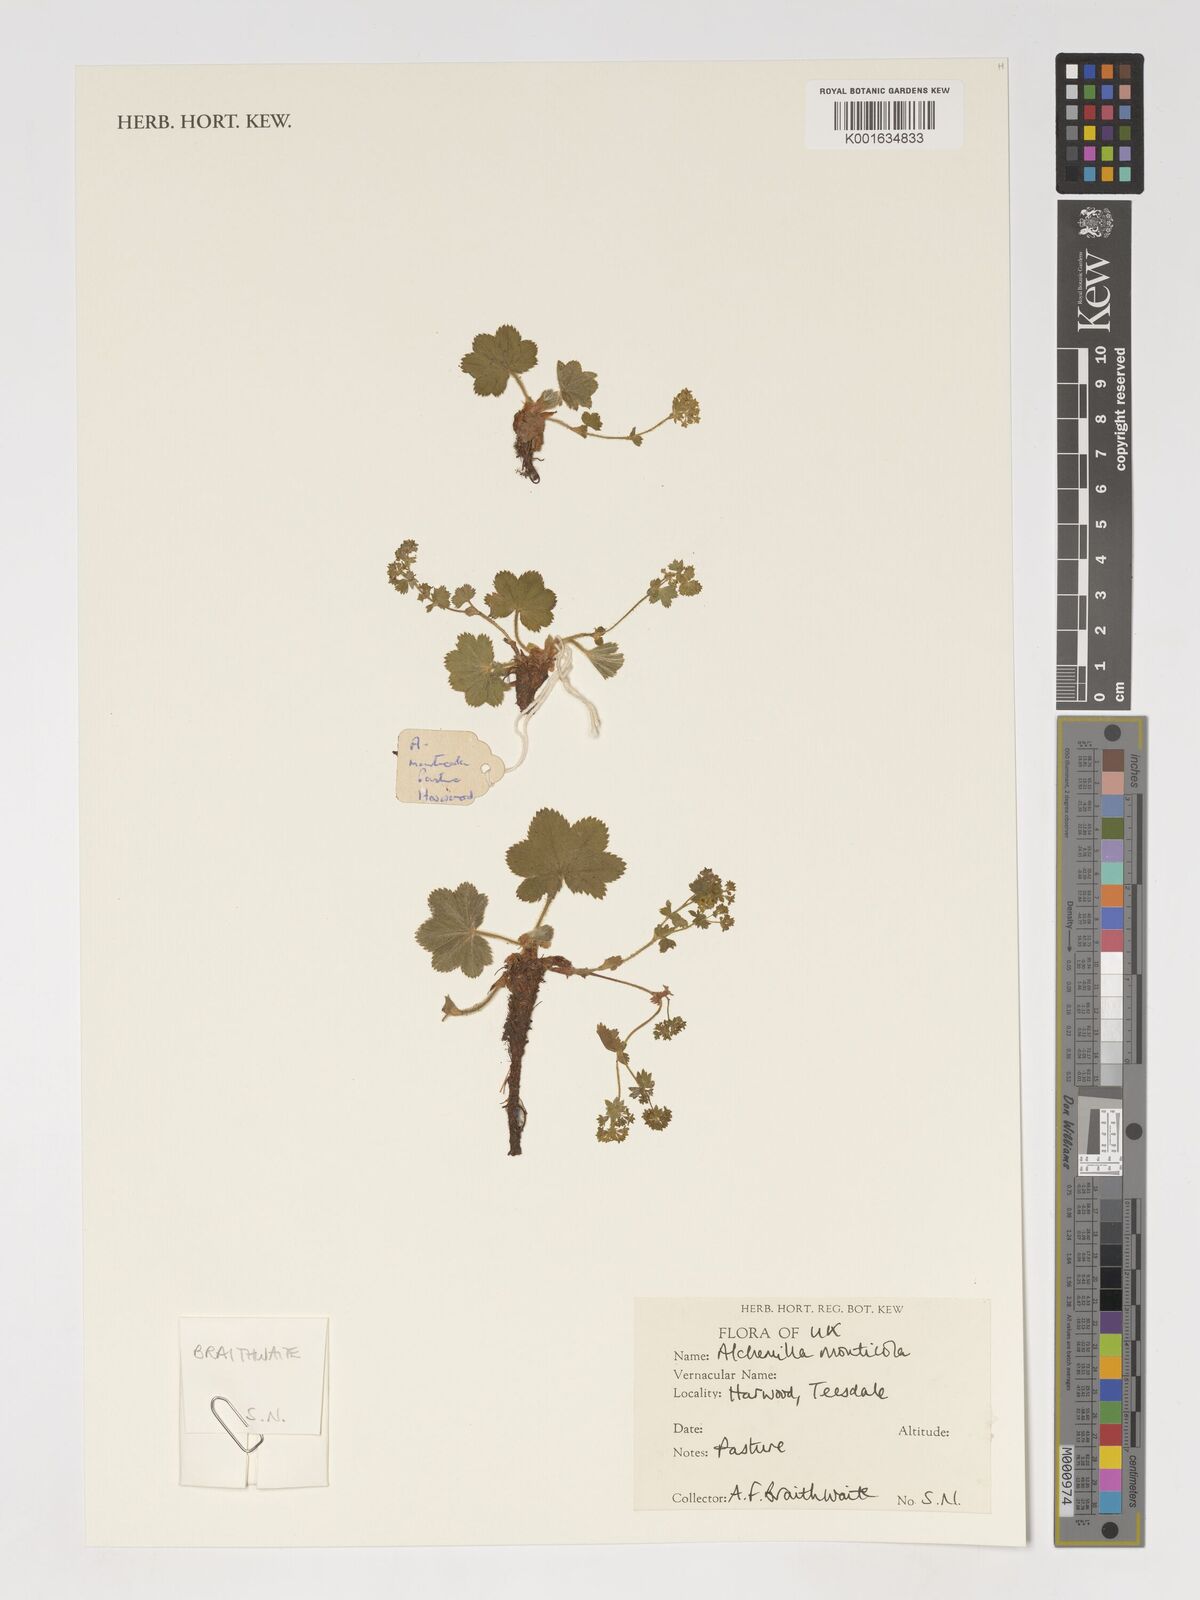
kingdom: Plantae
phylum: Tracheophyta
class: Magnoliopsida
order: Rosales
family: Rosaceae
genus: Alchemilla
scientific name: Alchemilla monticola
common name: Hairy lady's mantle
